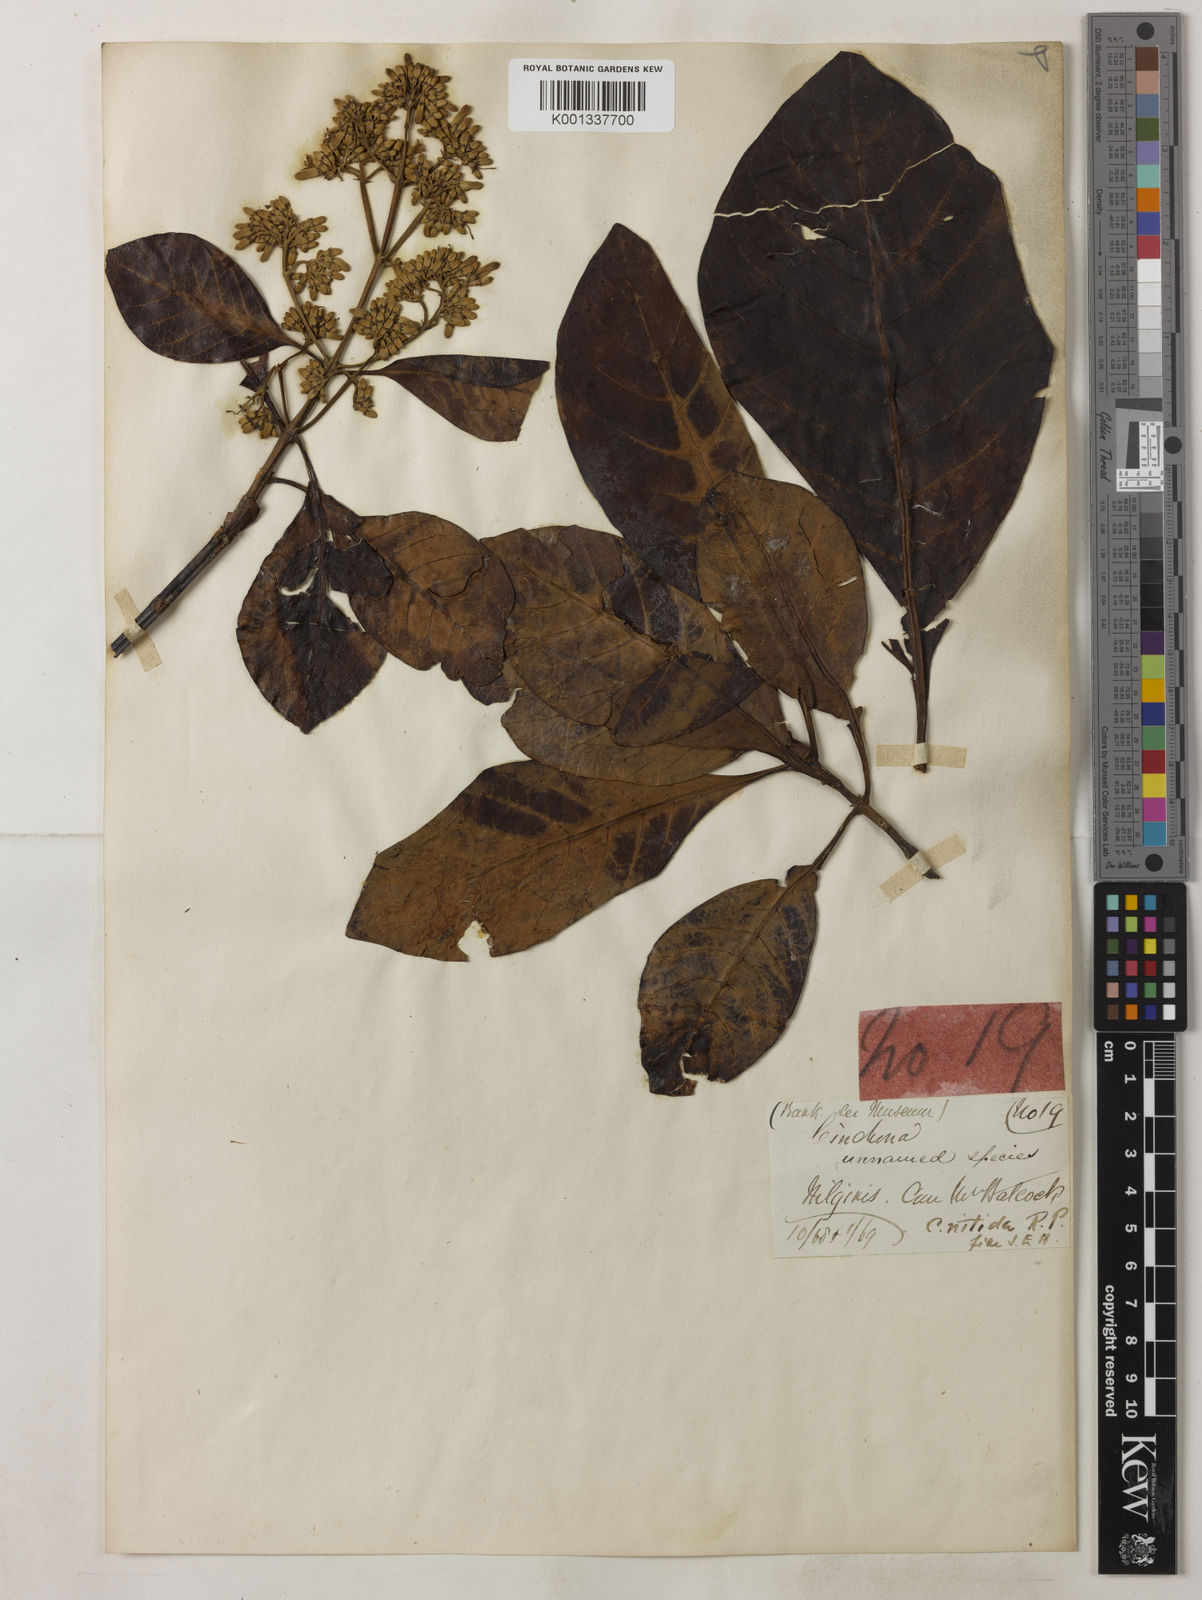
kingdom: Plantae
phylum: Tracheophyta
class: Magnoliopsida
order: Gentianales
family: Rubiaceae
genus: Cinchona
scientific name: Cinchona nitida
